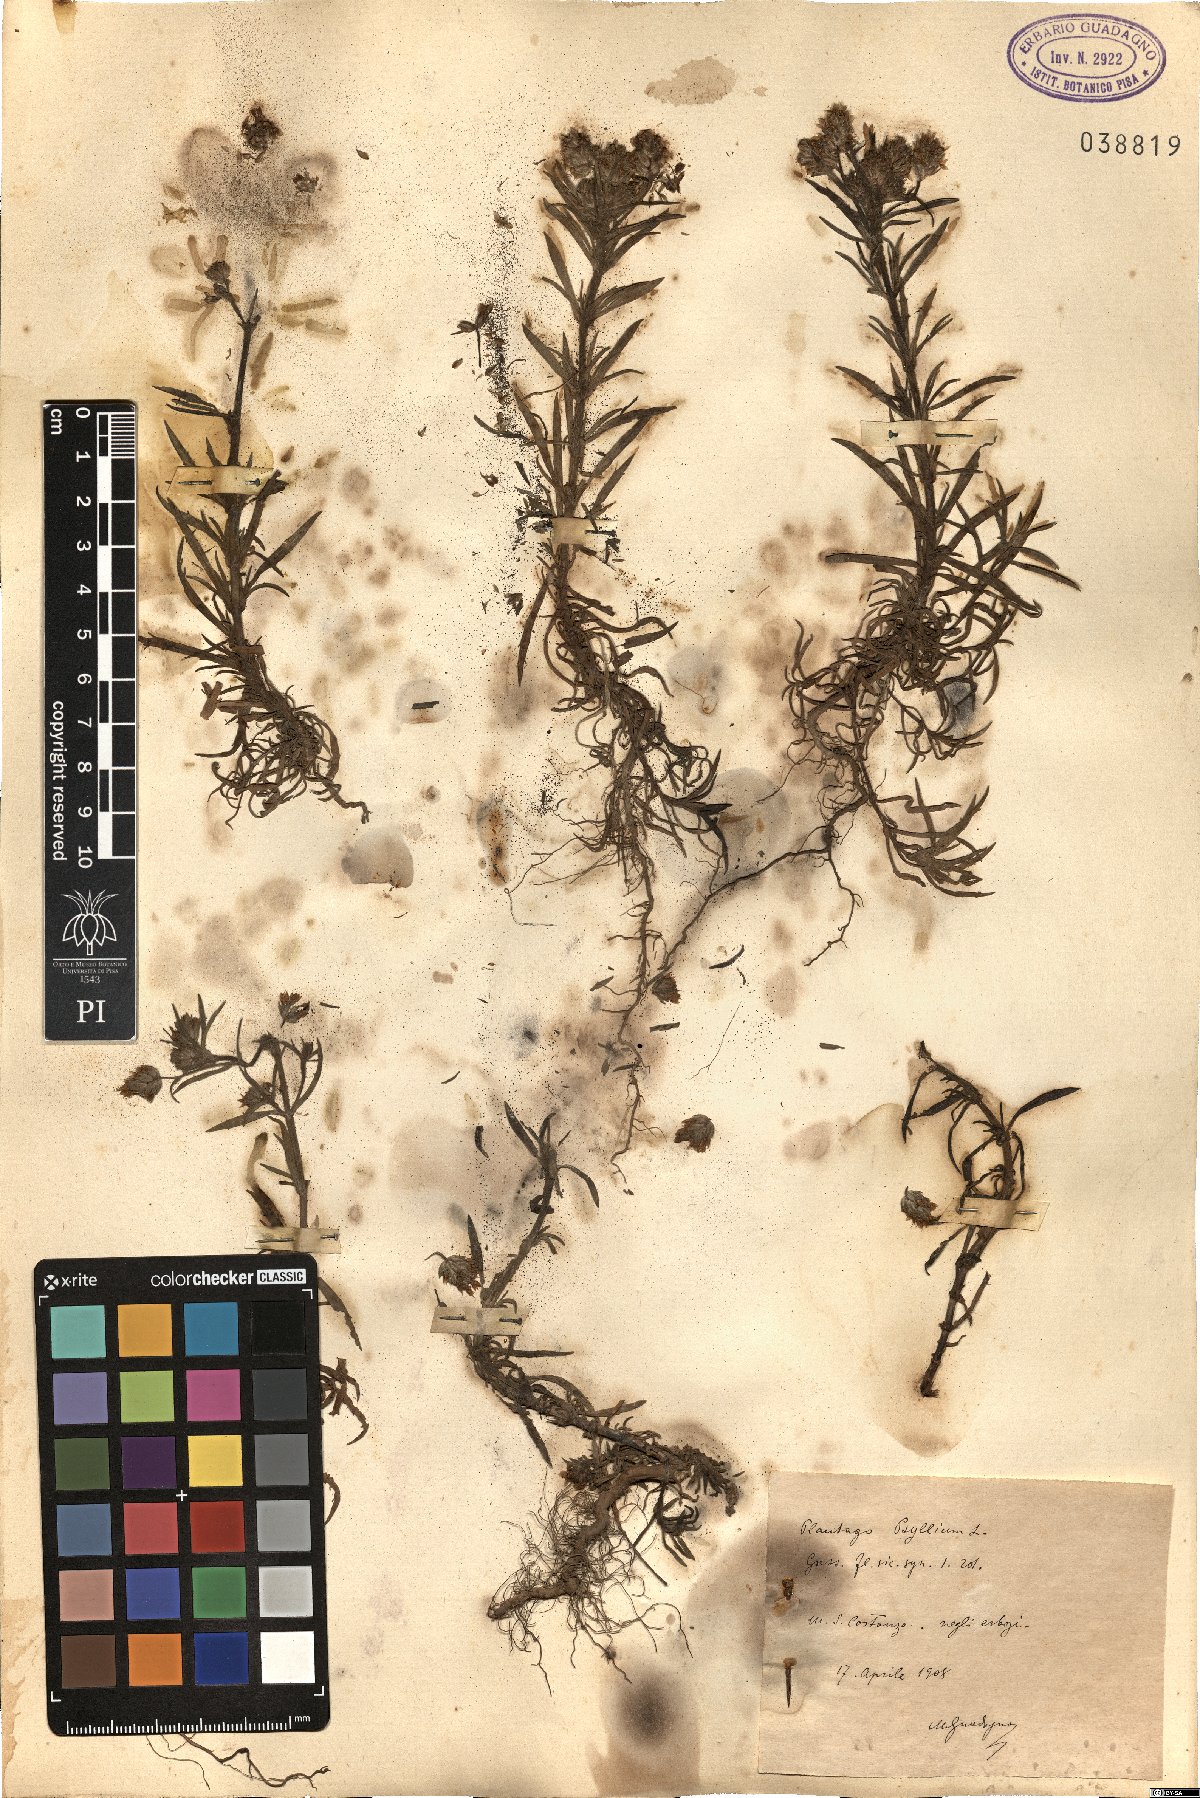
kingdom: Plantae
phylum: Tracheophyta
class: Magnoliopsida
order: Lamiales
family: Plantaginaceae
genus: Plantago
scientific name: Plantago
